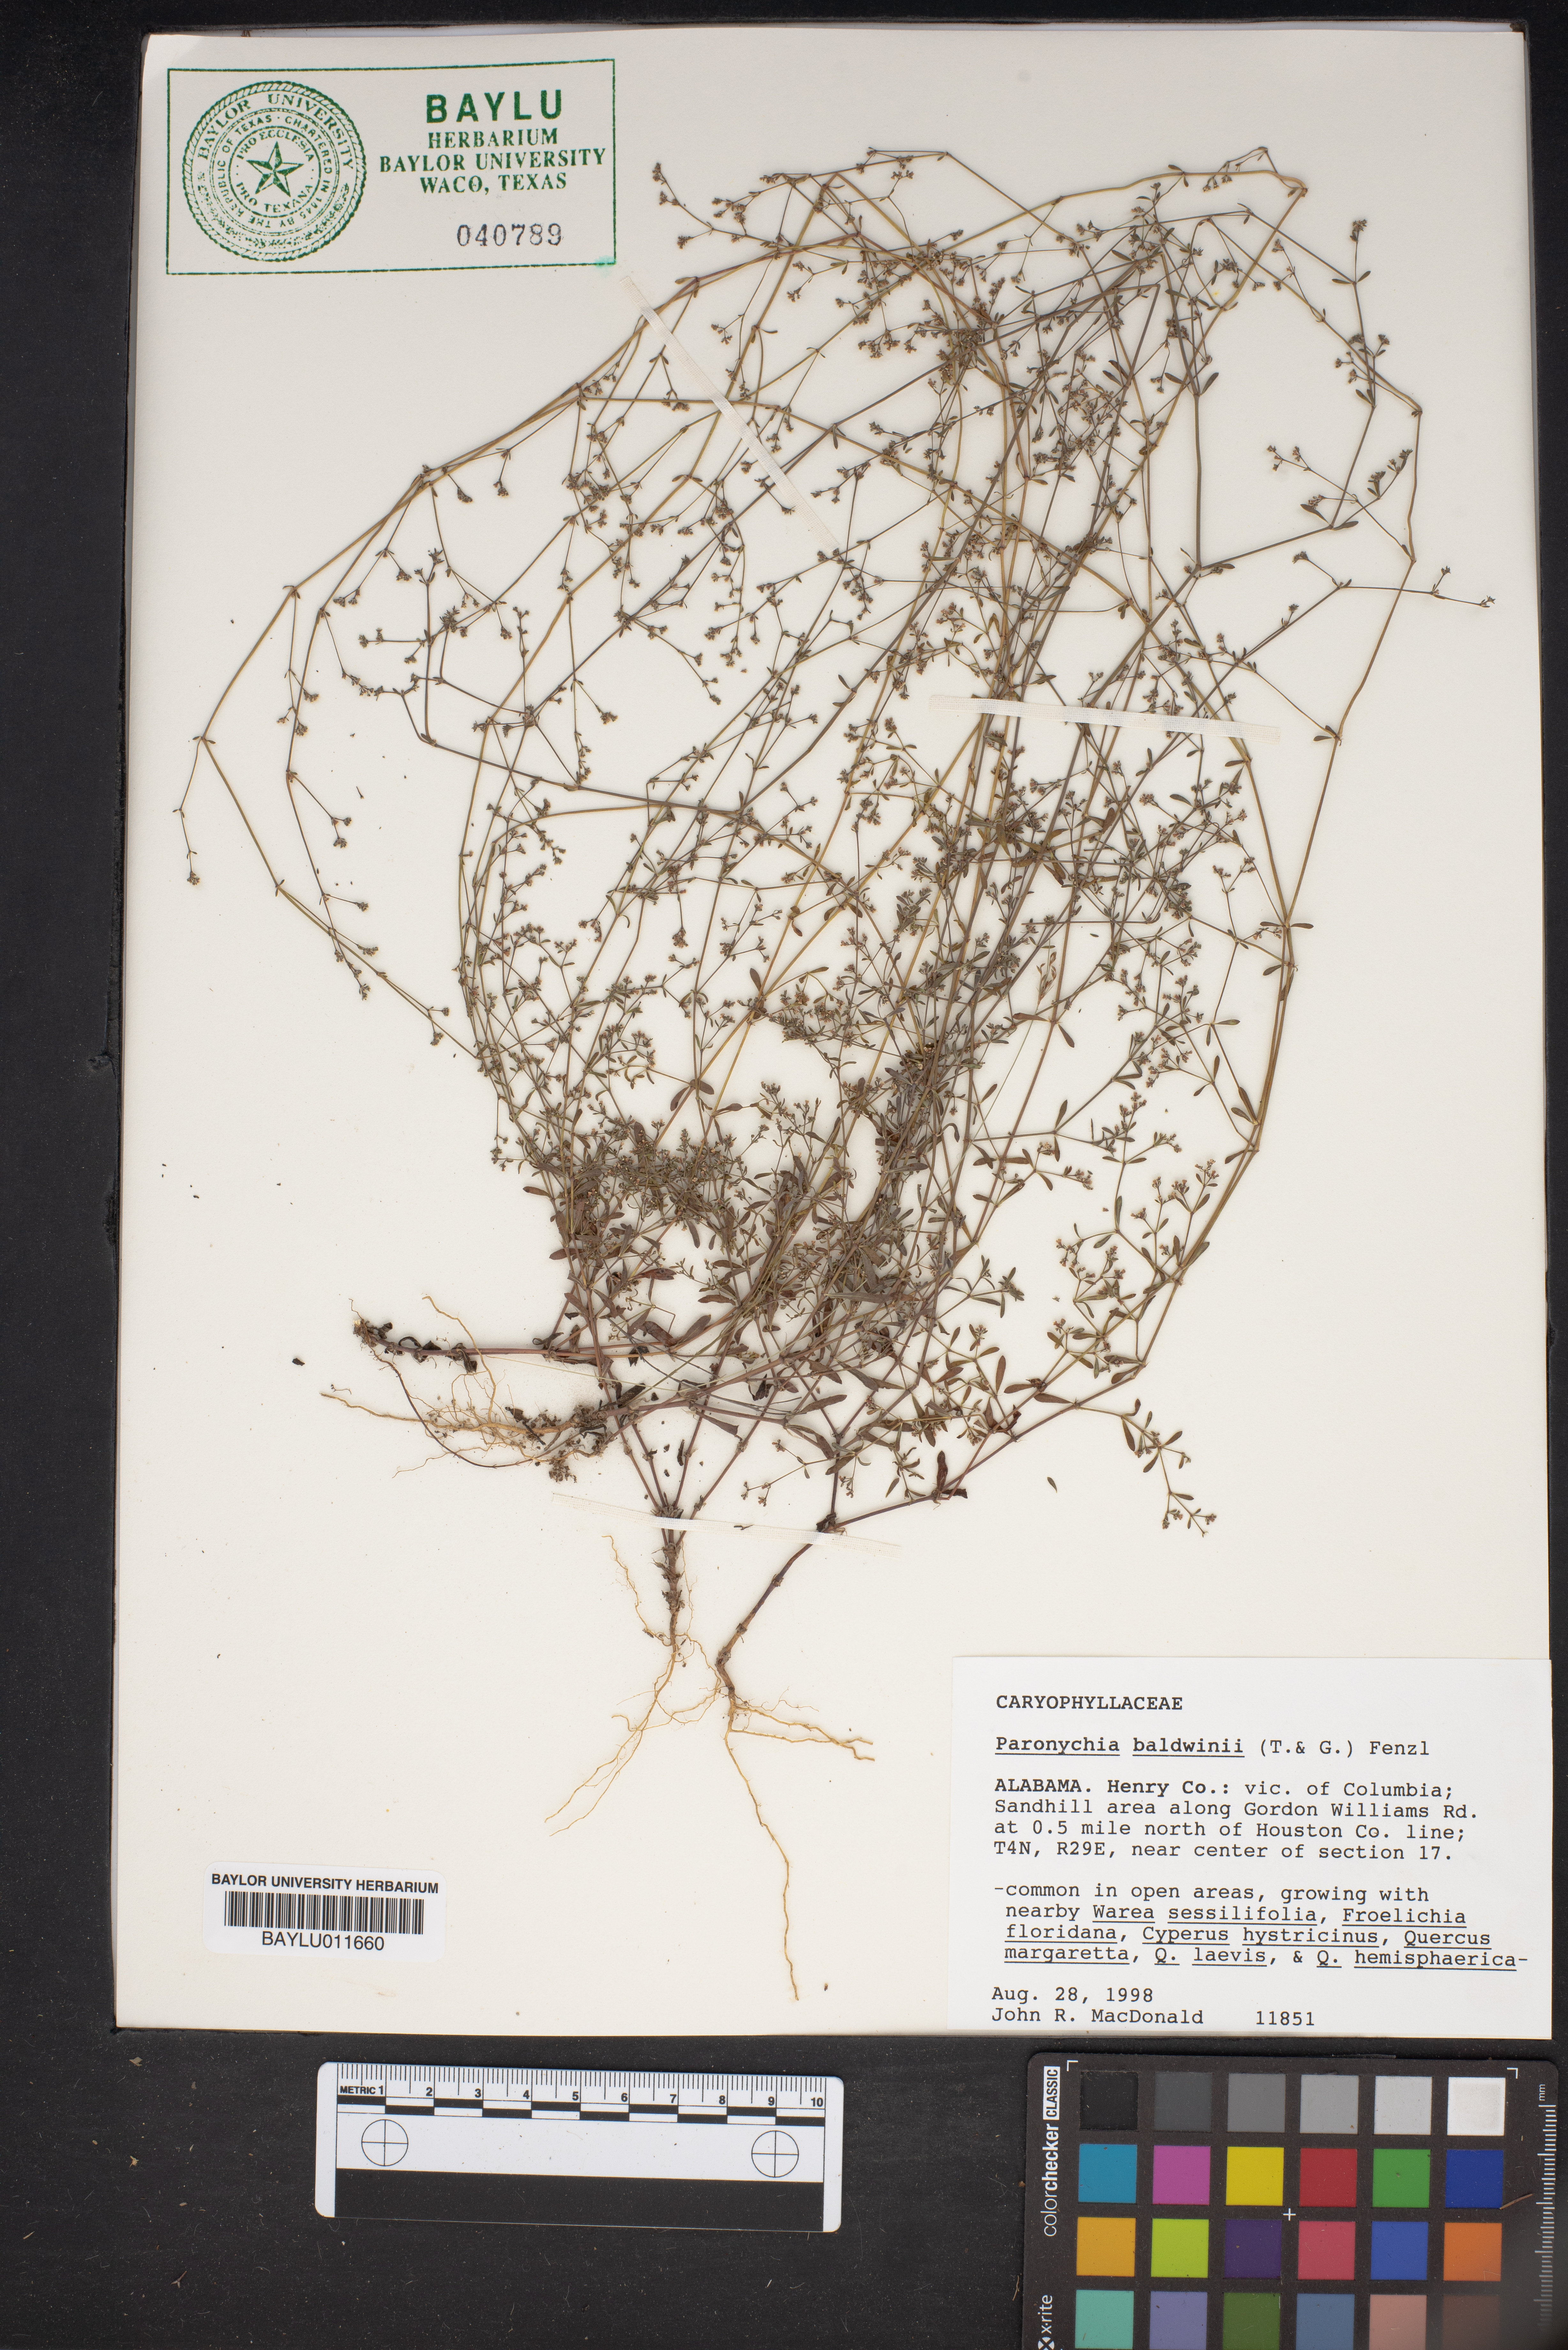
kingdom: Plantae
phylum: Tracheophyta
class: Magnoliopsida
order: Caryophyllales
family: Caryophyllaceae
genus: Paronychia
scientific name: Paronychia baldwinii
